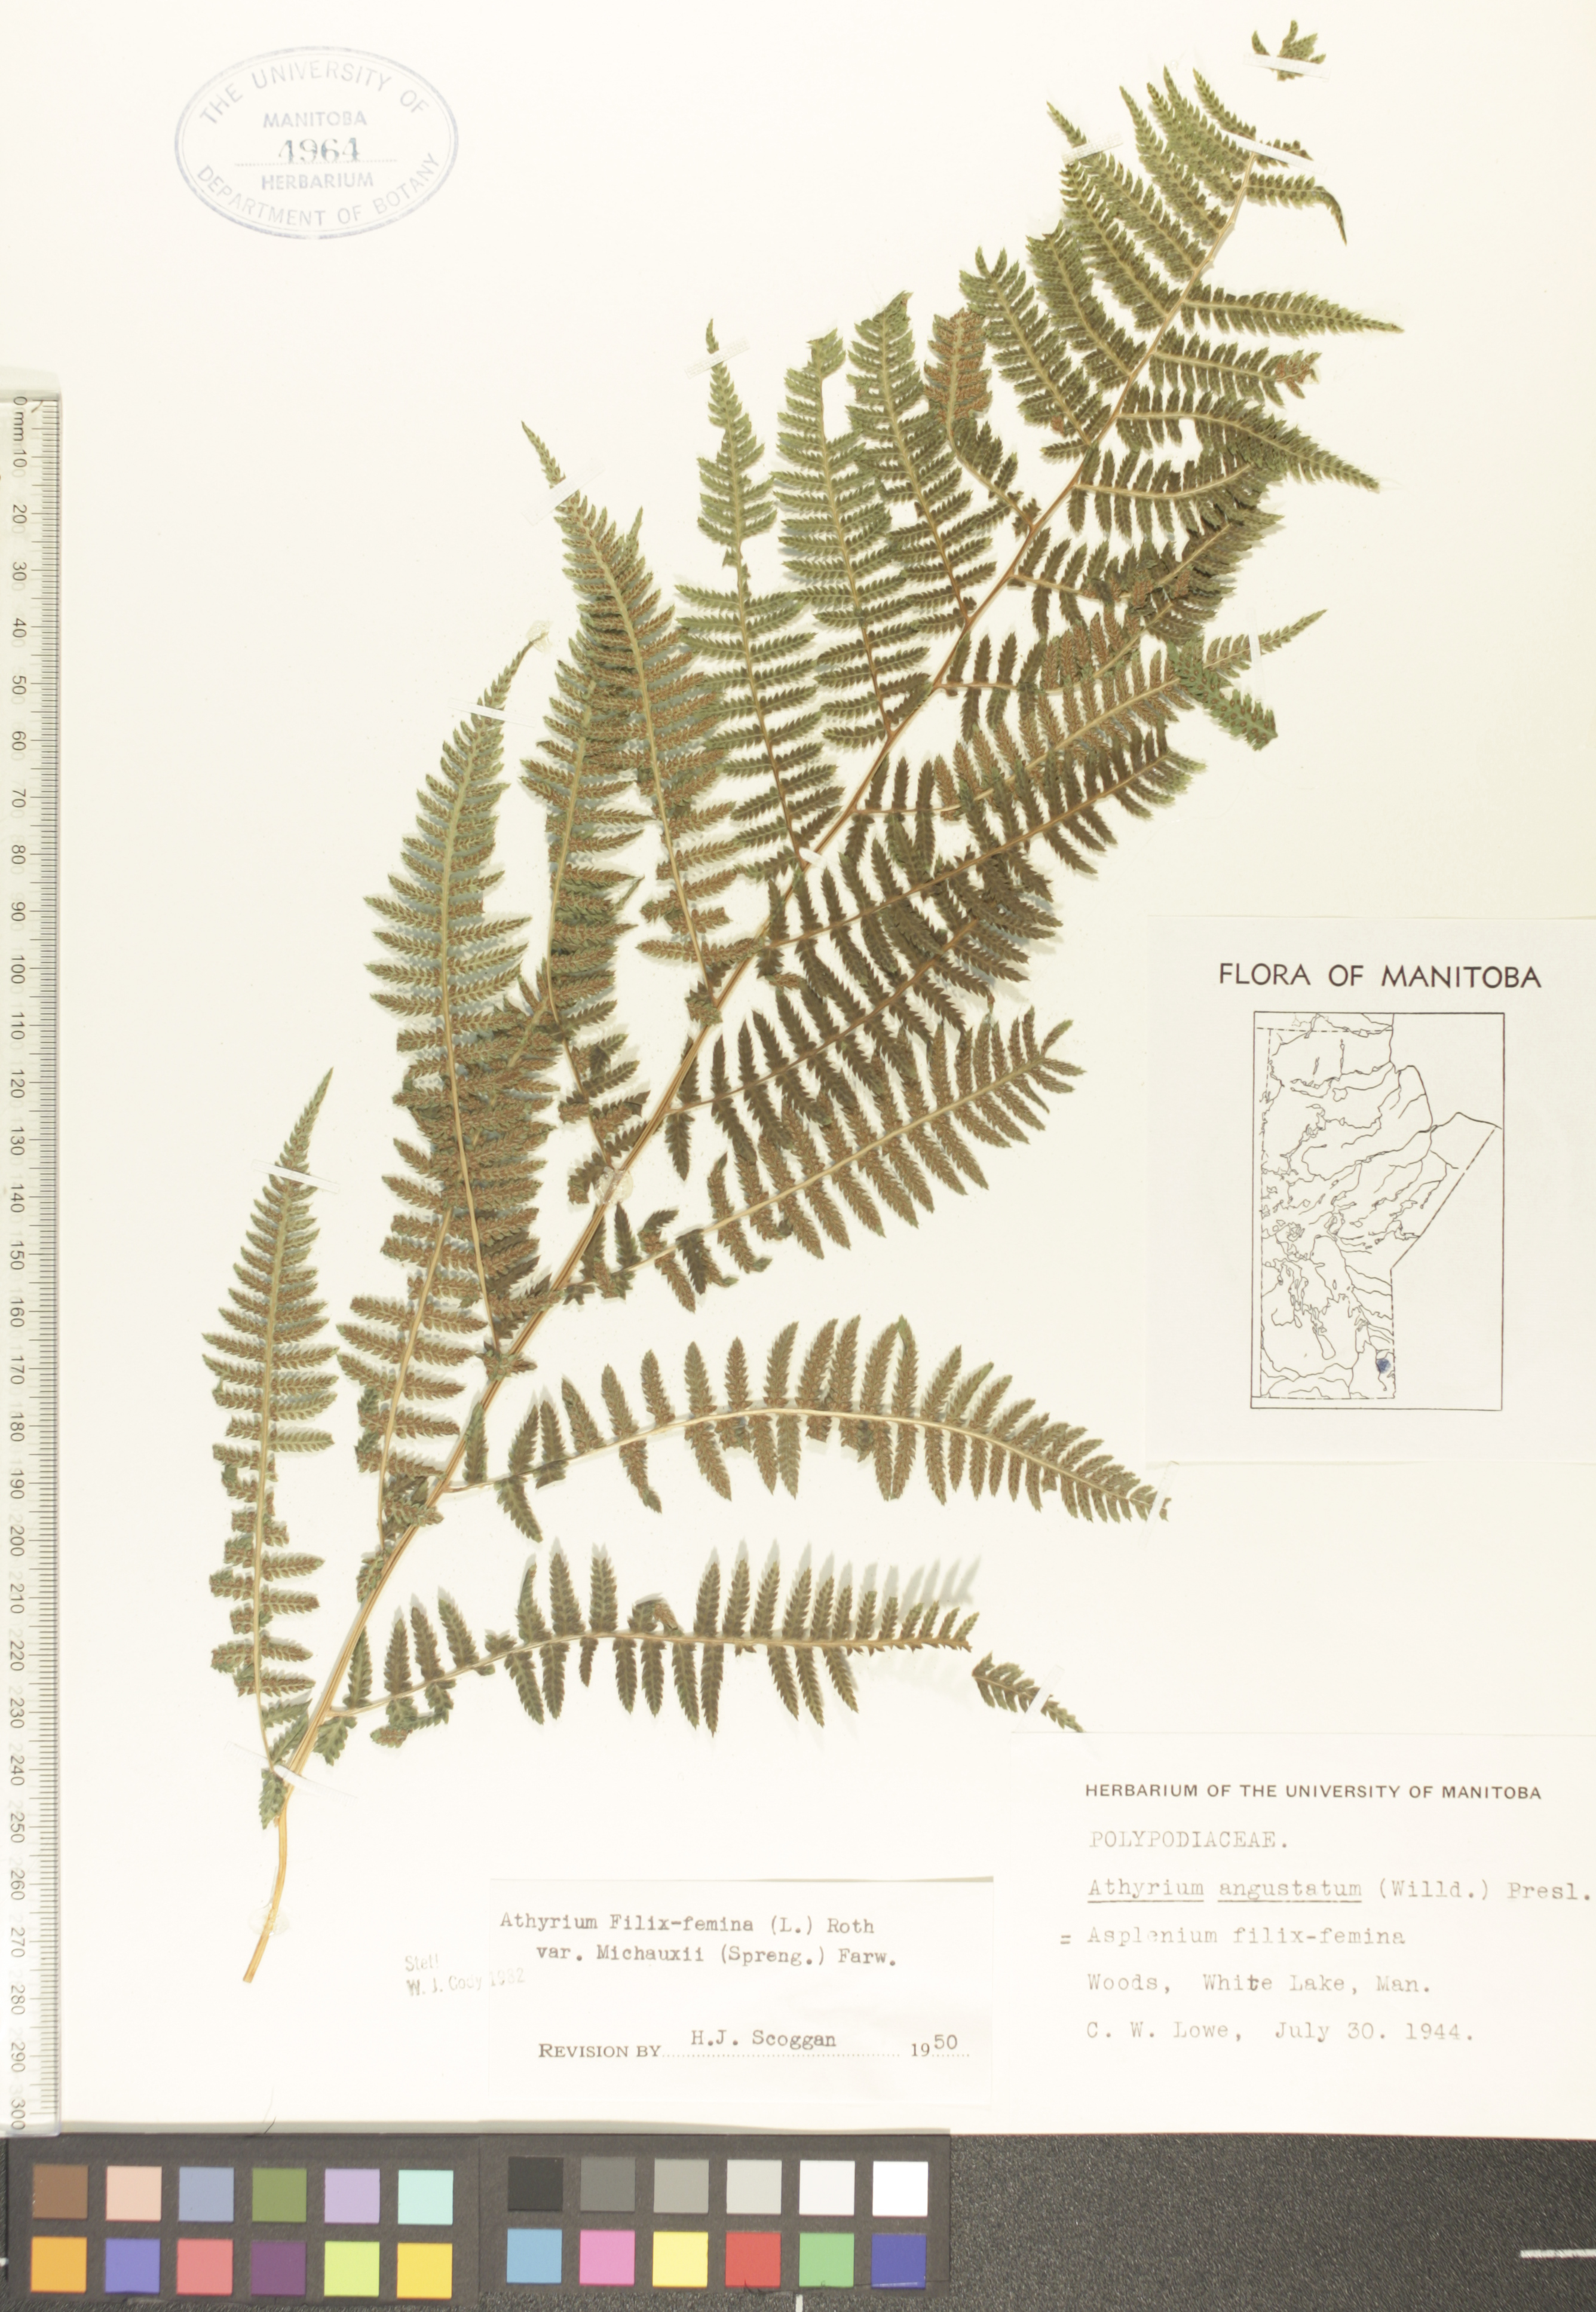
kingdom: Plantae
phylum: Tracheophyta
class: Polypodiopsida
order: Polypodiales
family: Athyriaceae
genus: Athyrium
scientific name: Athyrium angustum
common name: Northern lady fern
